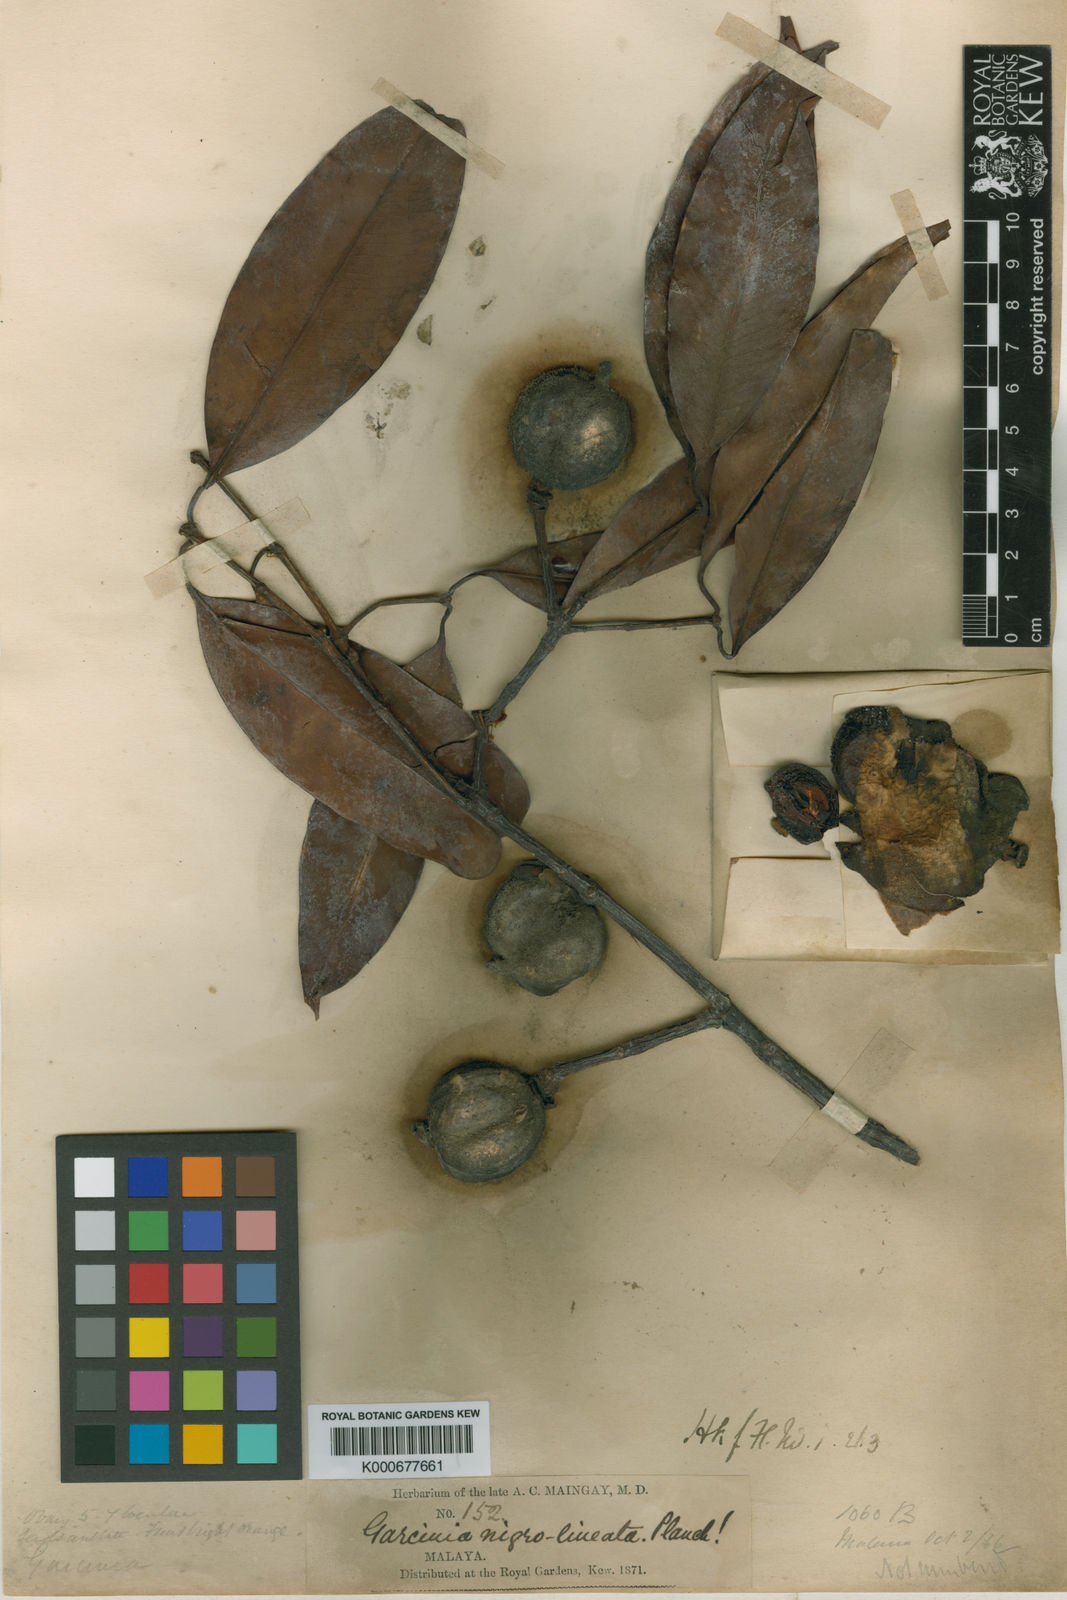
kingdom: Plantae
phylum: Tracheophyta
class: Magnoliopsida
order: Malpighiales
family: Clusiaceae
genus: Garcinia
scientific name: Garcinia nigrolineata
